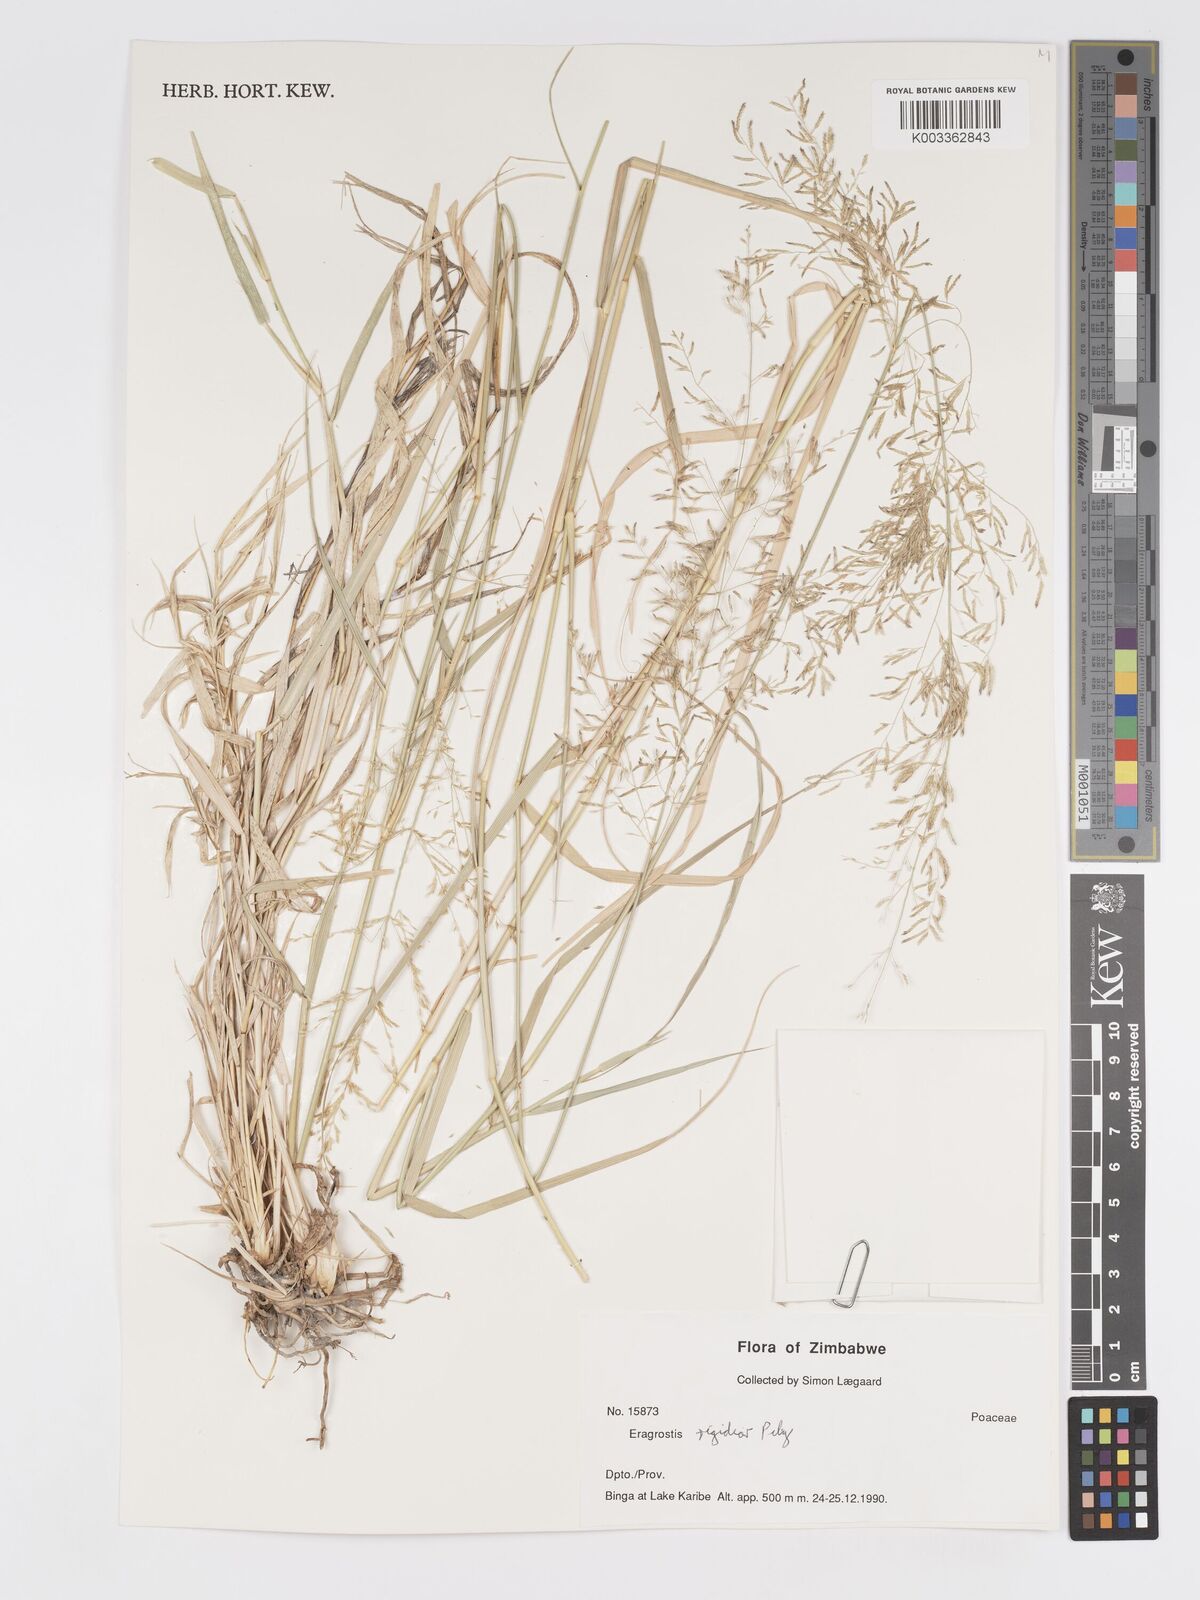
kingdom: Plantae
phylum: Tracheophyta
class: Liliopsida
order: Poales
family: Poaceae
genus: Eragrostis
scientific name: Eragrostis cylindriflora
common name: Cylinderflower lovegrass
